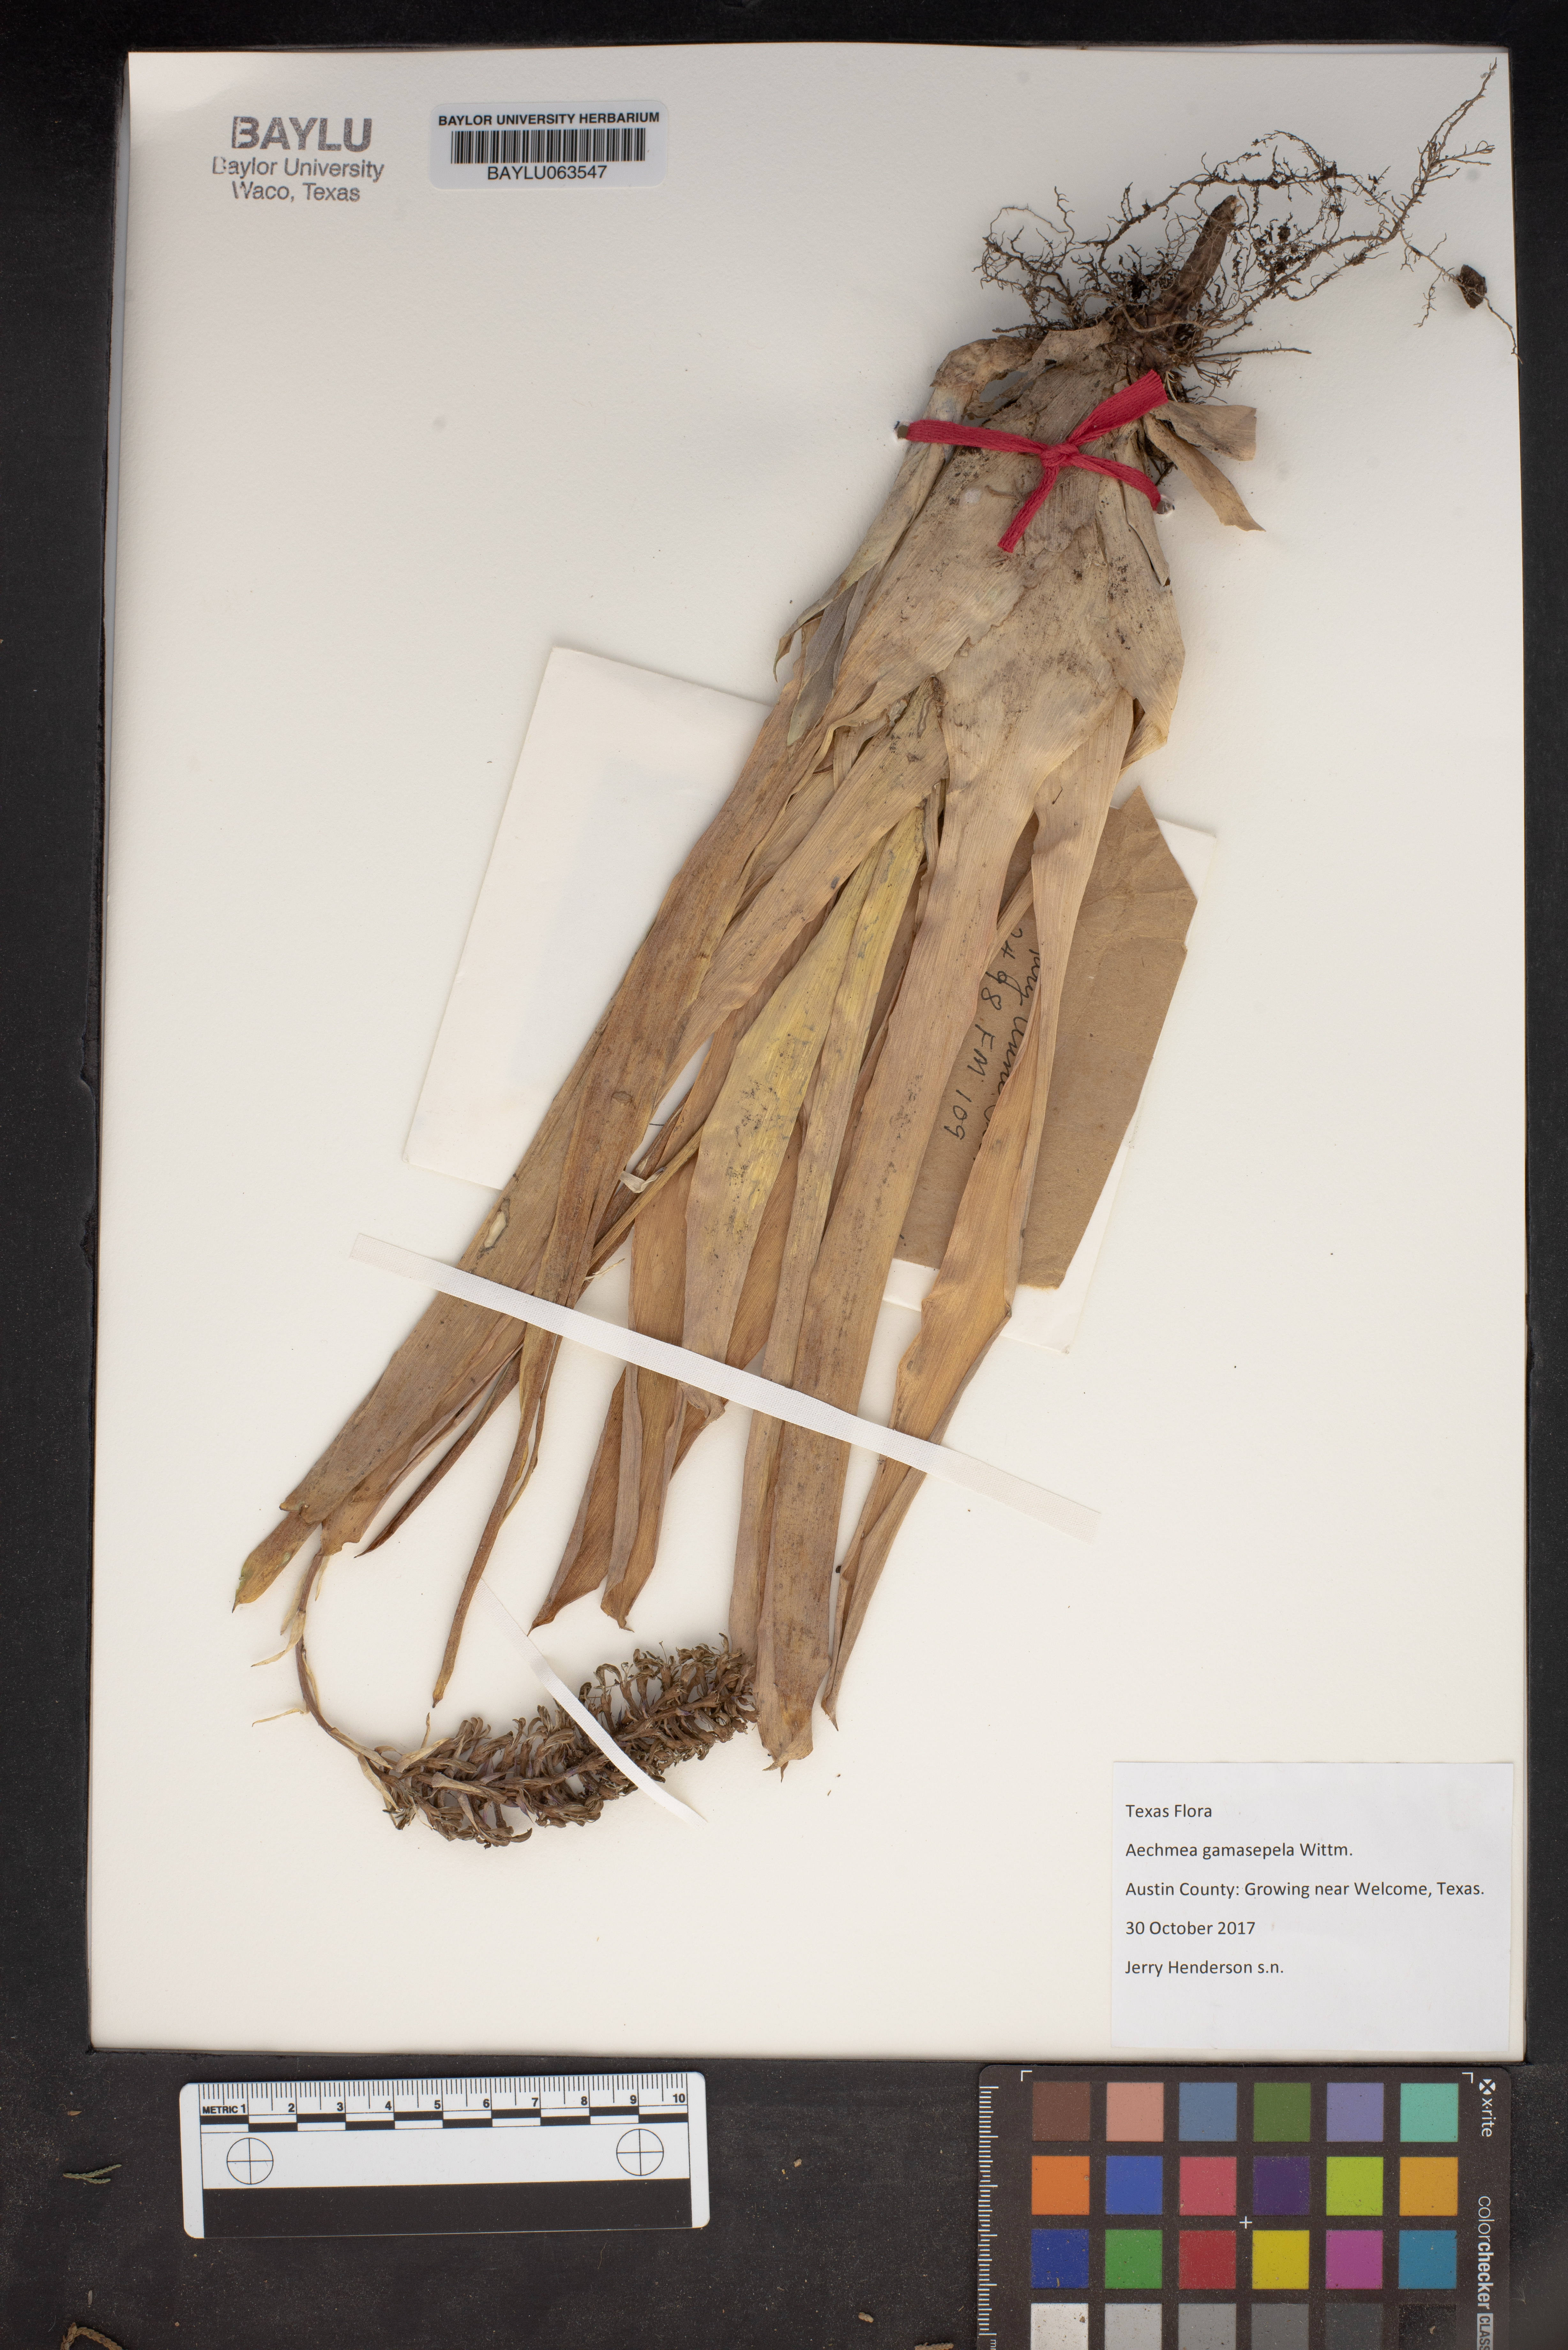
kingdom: Plantae
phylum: Tracheophyta
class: Liliopsida
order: Poales
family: Bromeliaceae
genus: Aechmea
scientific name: Aechmea gamosepala
